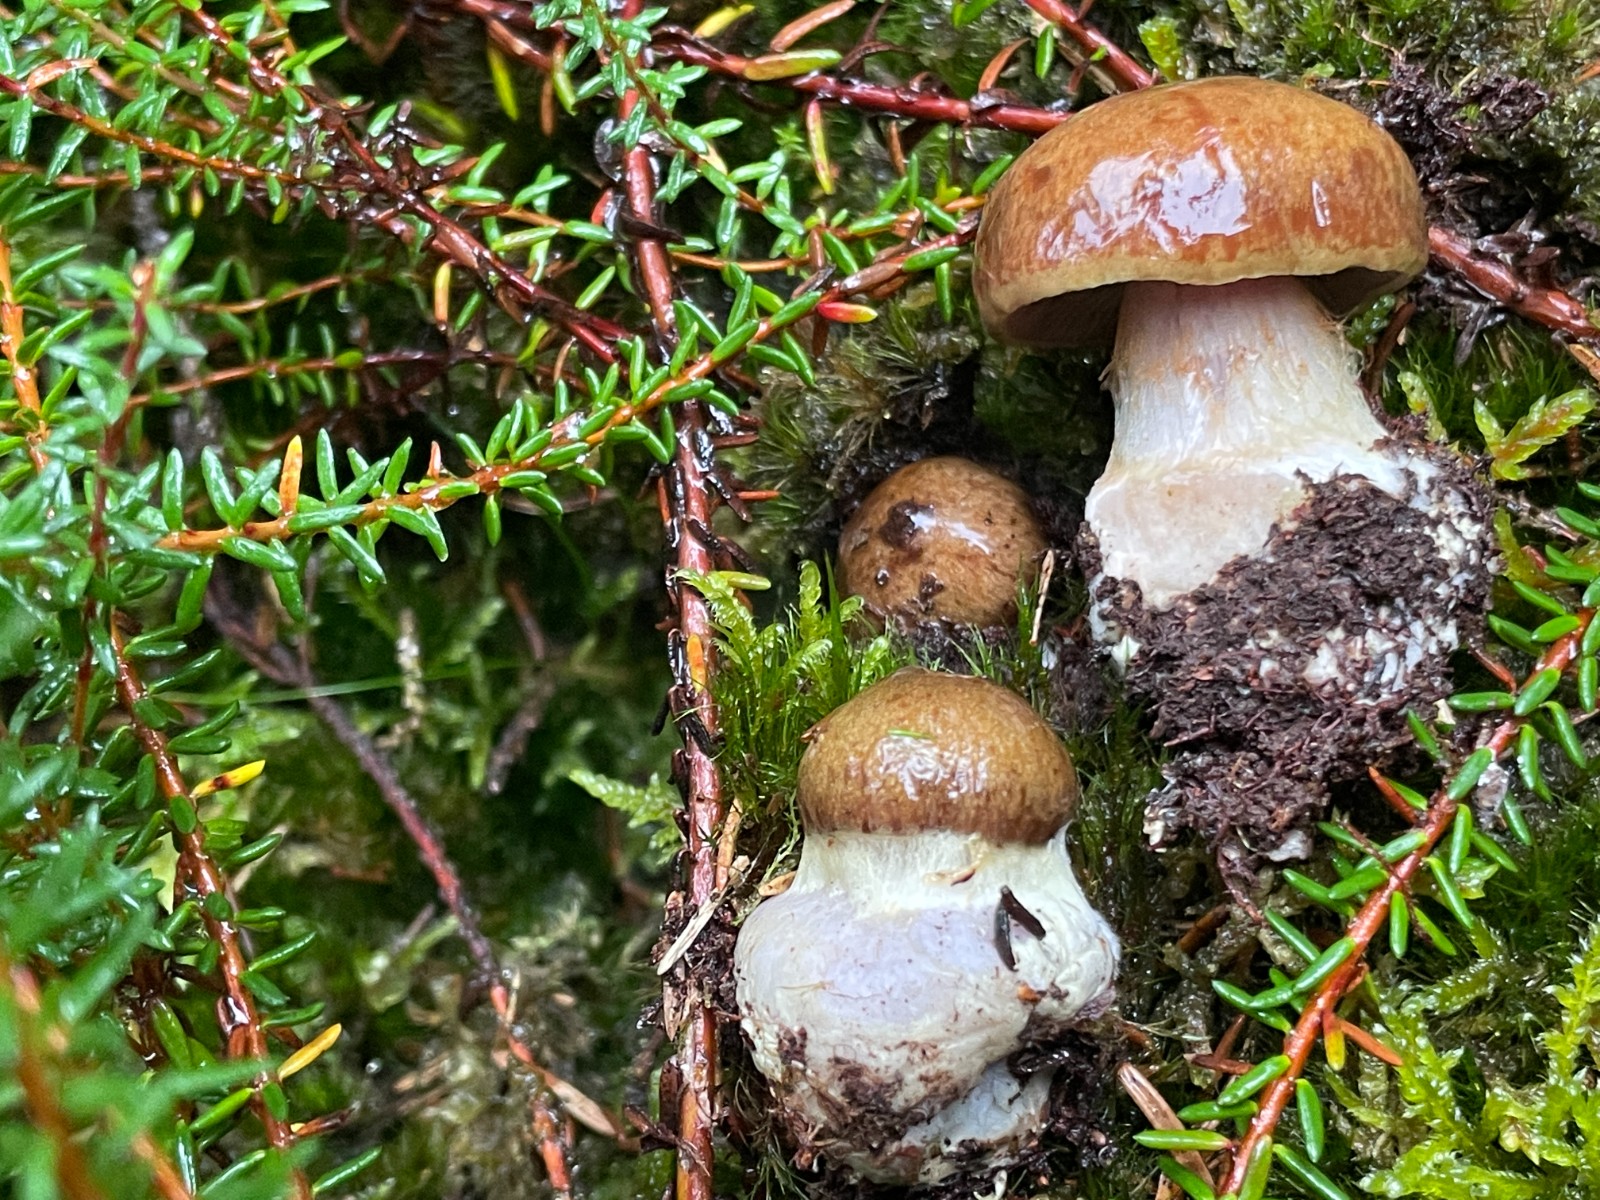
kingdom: Fungi
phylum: Basidiomycota
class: Agaricomycetes
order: Agaricales
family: Cortinariaceae
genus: Thaxterogaster
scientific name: Thaxterogaster sphagnophilus
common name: vandplettet slørhat
